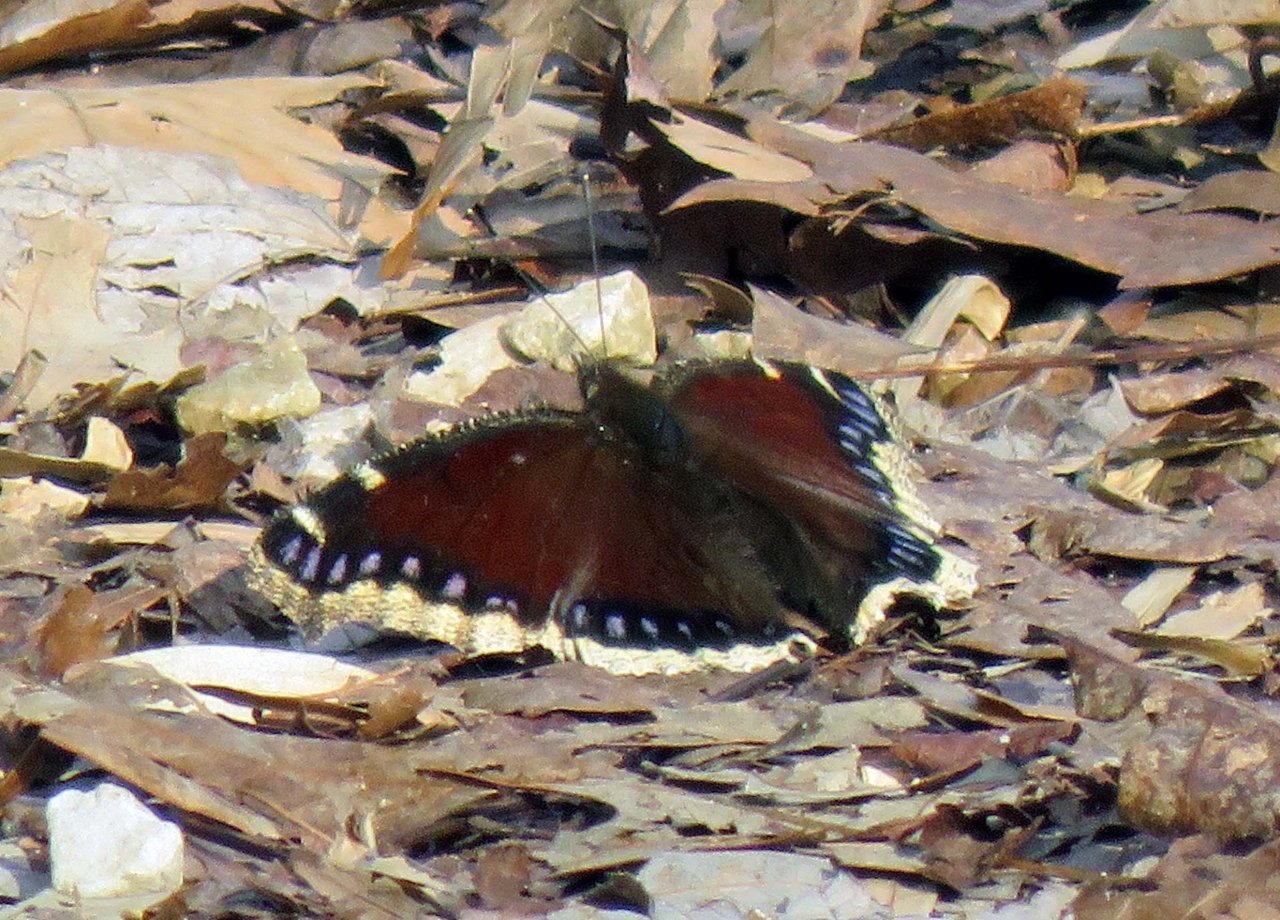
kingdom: Animalia
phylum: Arthropoda
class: Insecta
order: Lepidoptera
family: Nymphalidae
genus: Nymphalis
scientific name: Nymphalis antiopa
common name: Mourning Cloak
